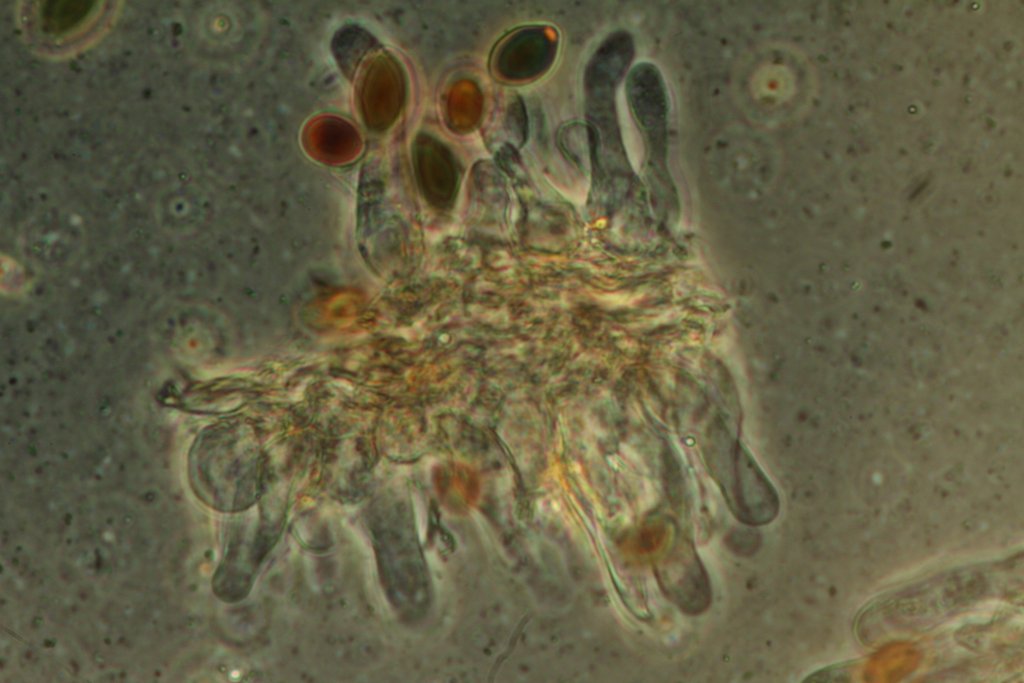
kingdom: Fungi
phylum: Basidiomycota
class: Agaricomycetes
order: Agaricales
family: Bolbitiaceae
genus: Panaeolus
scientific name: Panaeolus cinctulus
